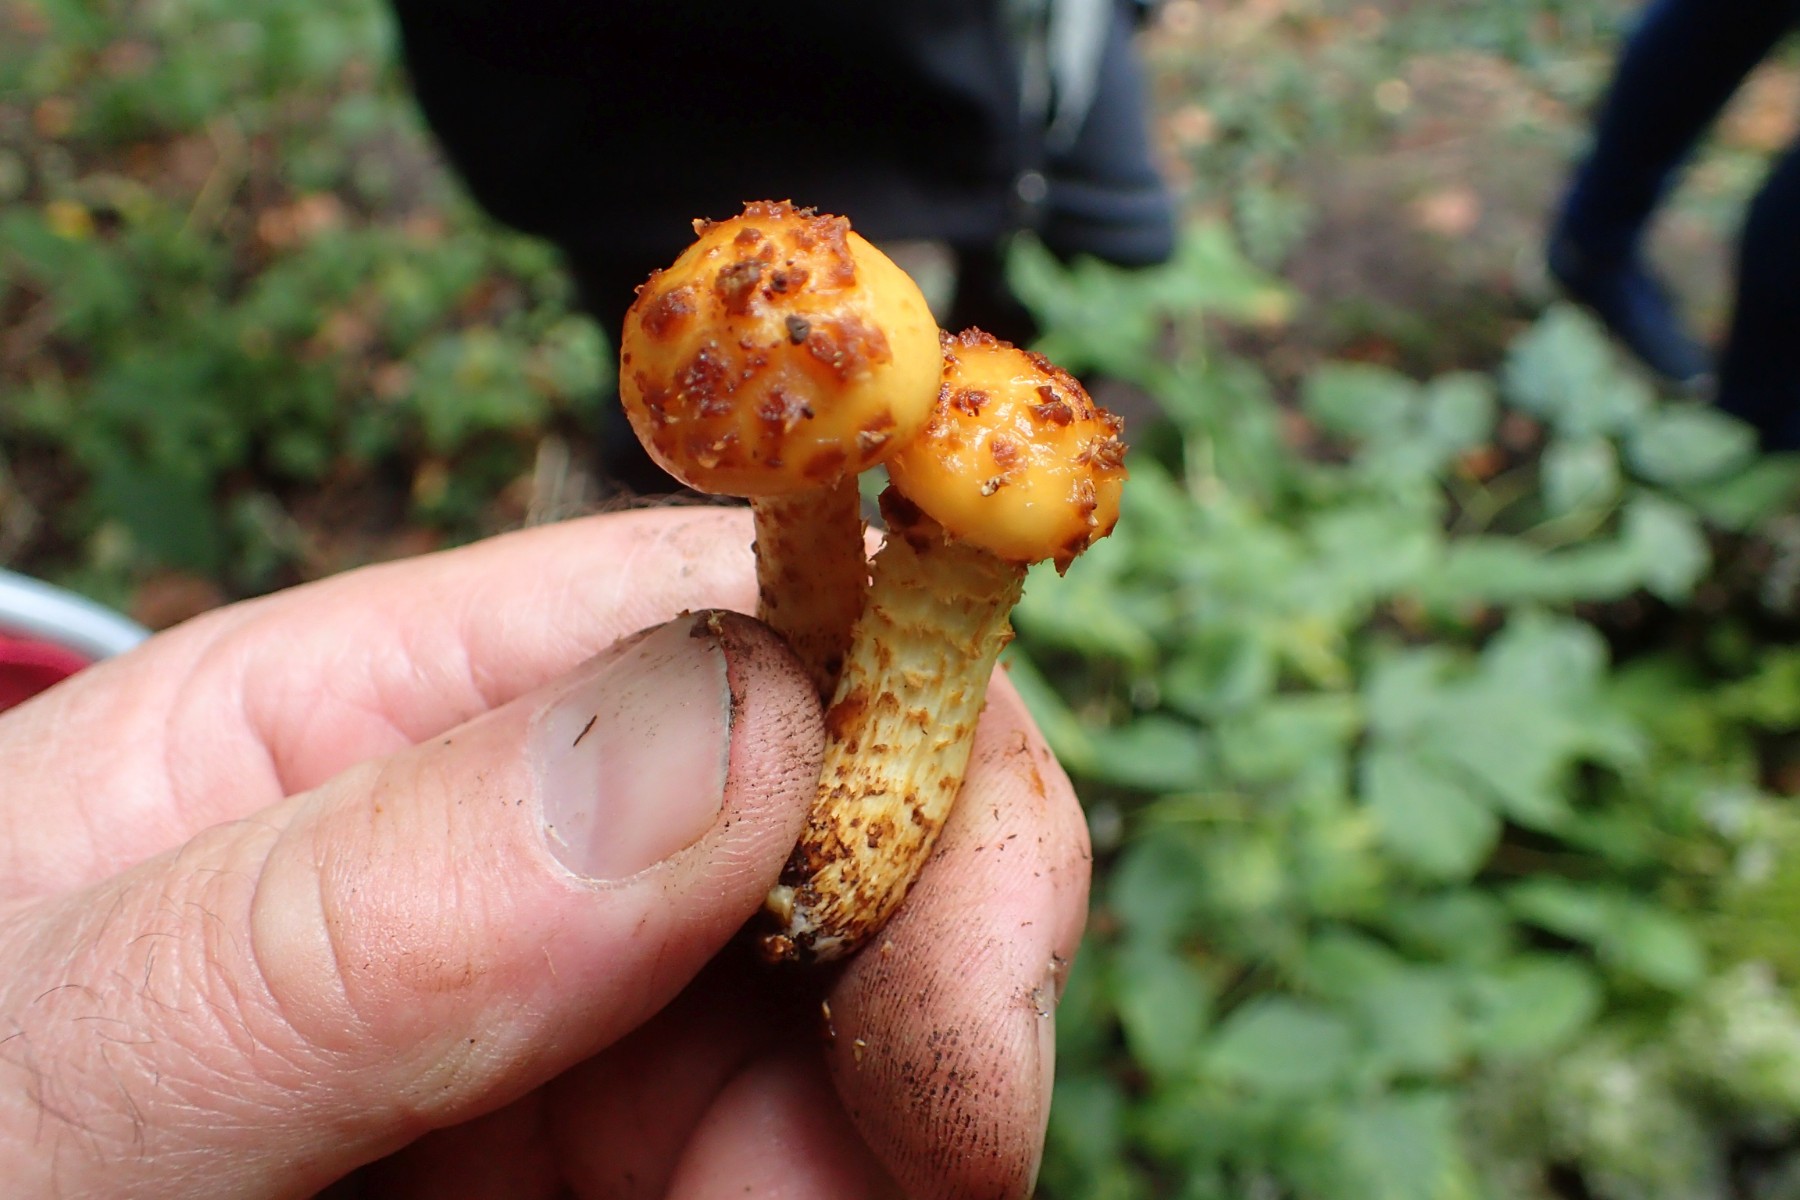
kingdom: Fungi
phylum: Basidiomycota
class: Agaricomycetes
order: Agaricales
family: Strophariaceae
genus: Pholiota
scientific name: Pholiota
